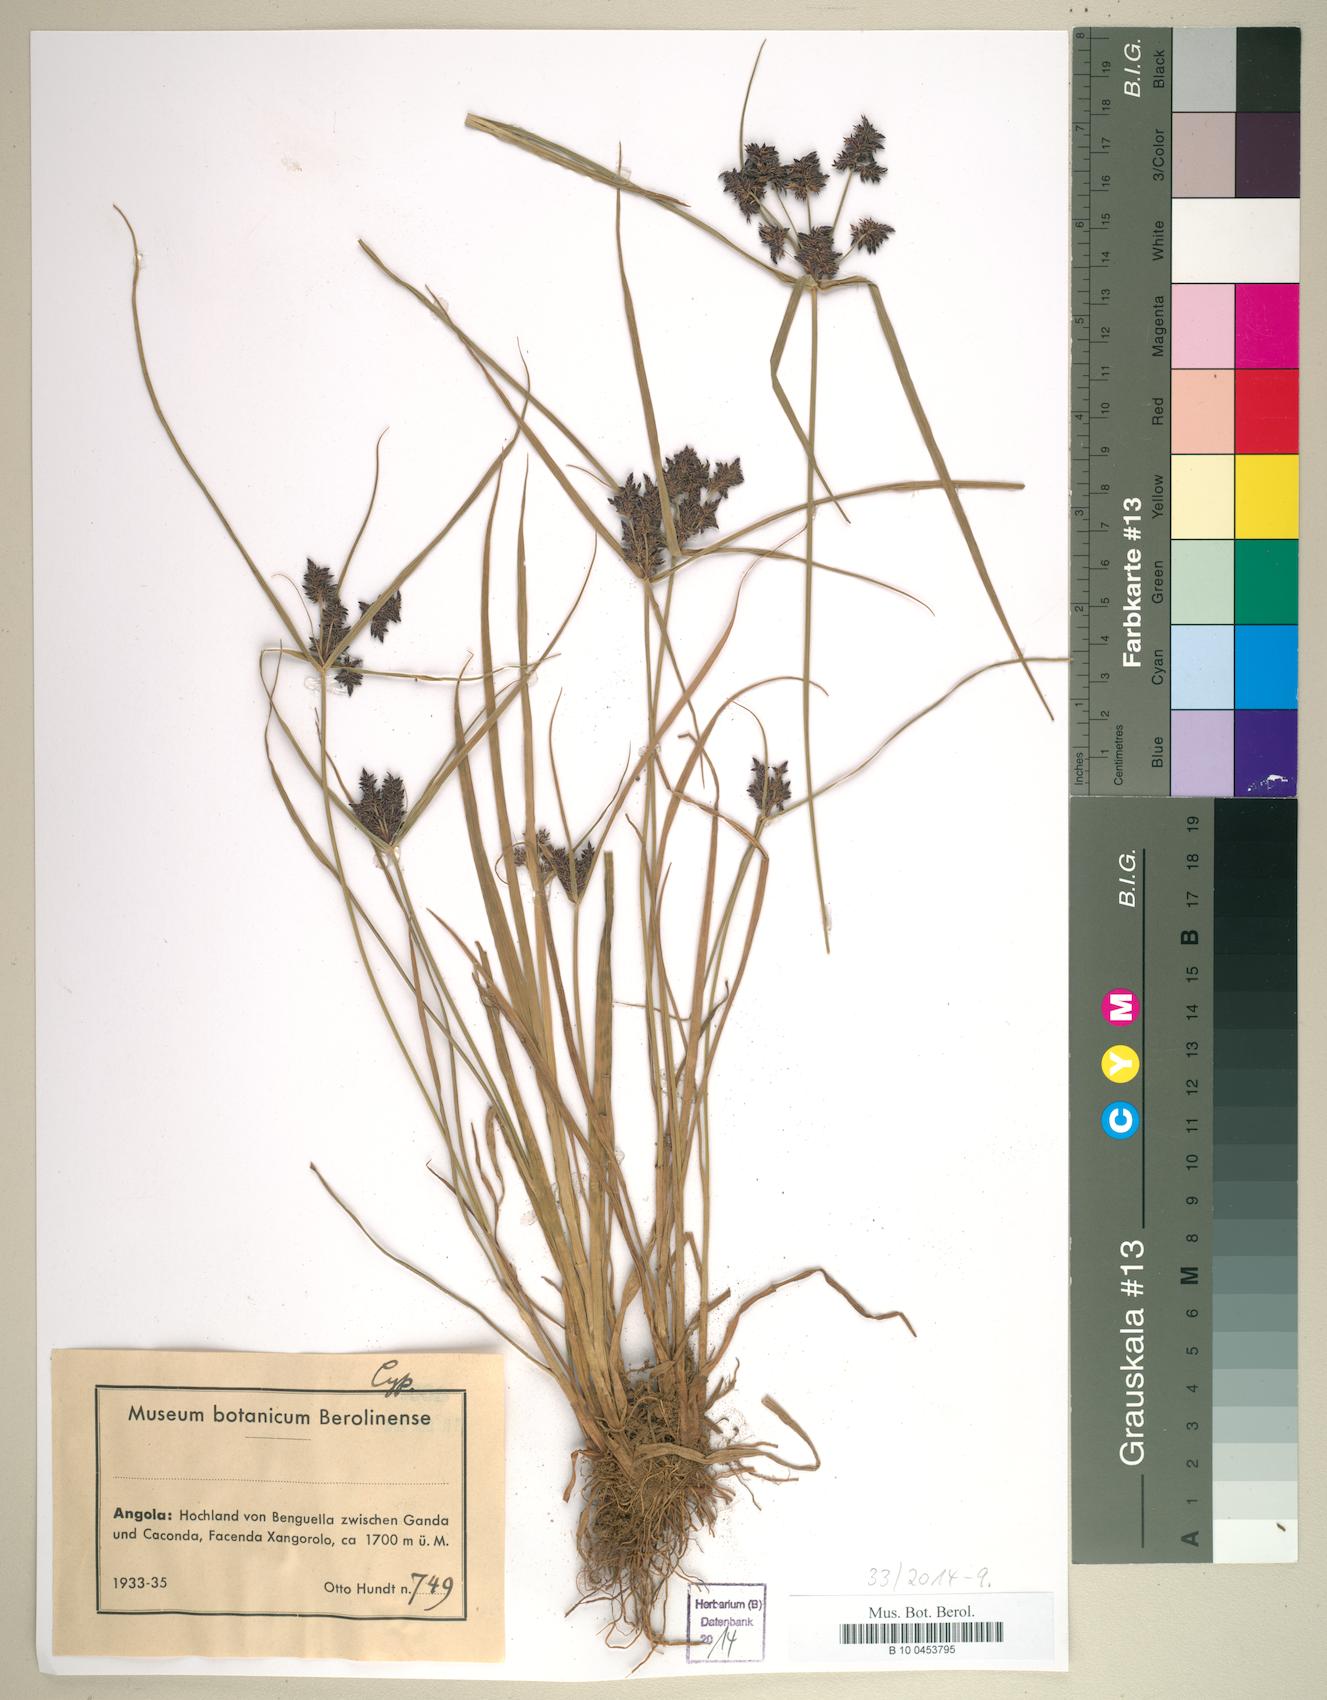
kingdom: Plantae
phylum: Tracheophyta
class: Liliopsida
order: Poales
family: Cyperaceae
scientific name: Cyperaceae
